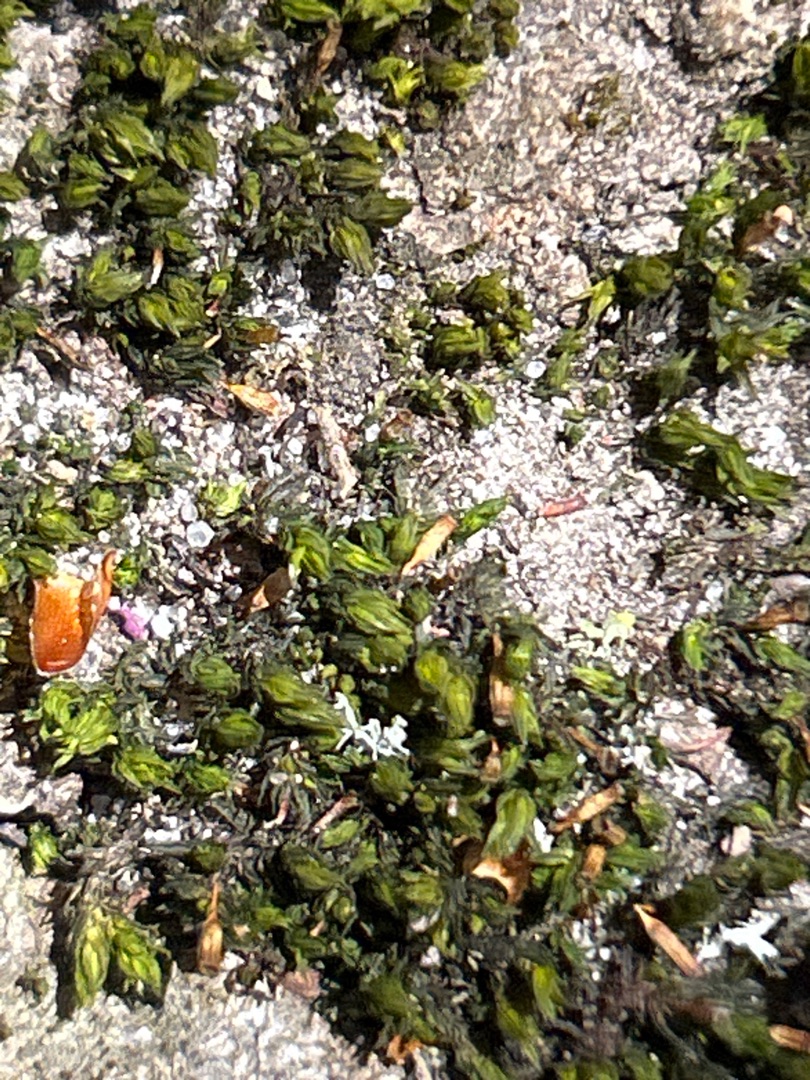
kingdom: Plantae
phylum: Bryophyta
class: Bryopsida
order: Orthotrichales
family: Orthotrichaceae
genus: Lewinskya
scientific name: Lewinskya affinis
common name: Almindelig furehætte
